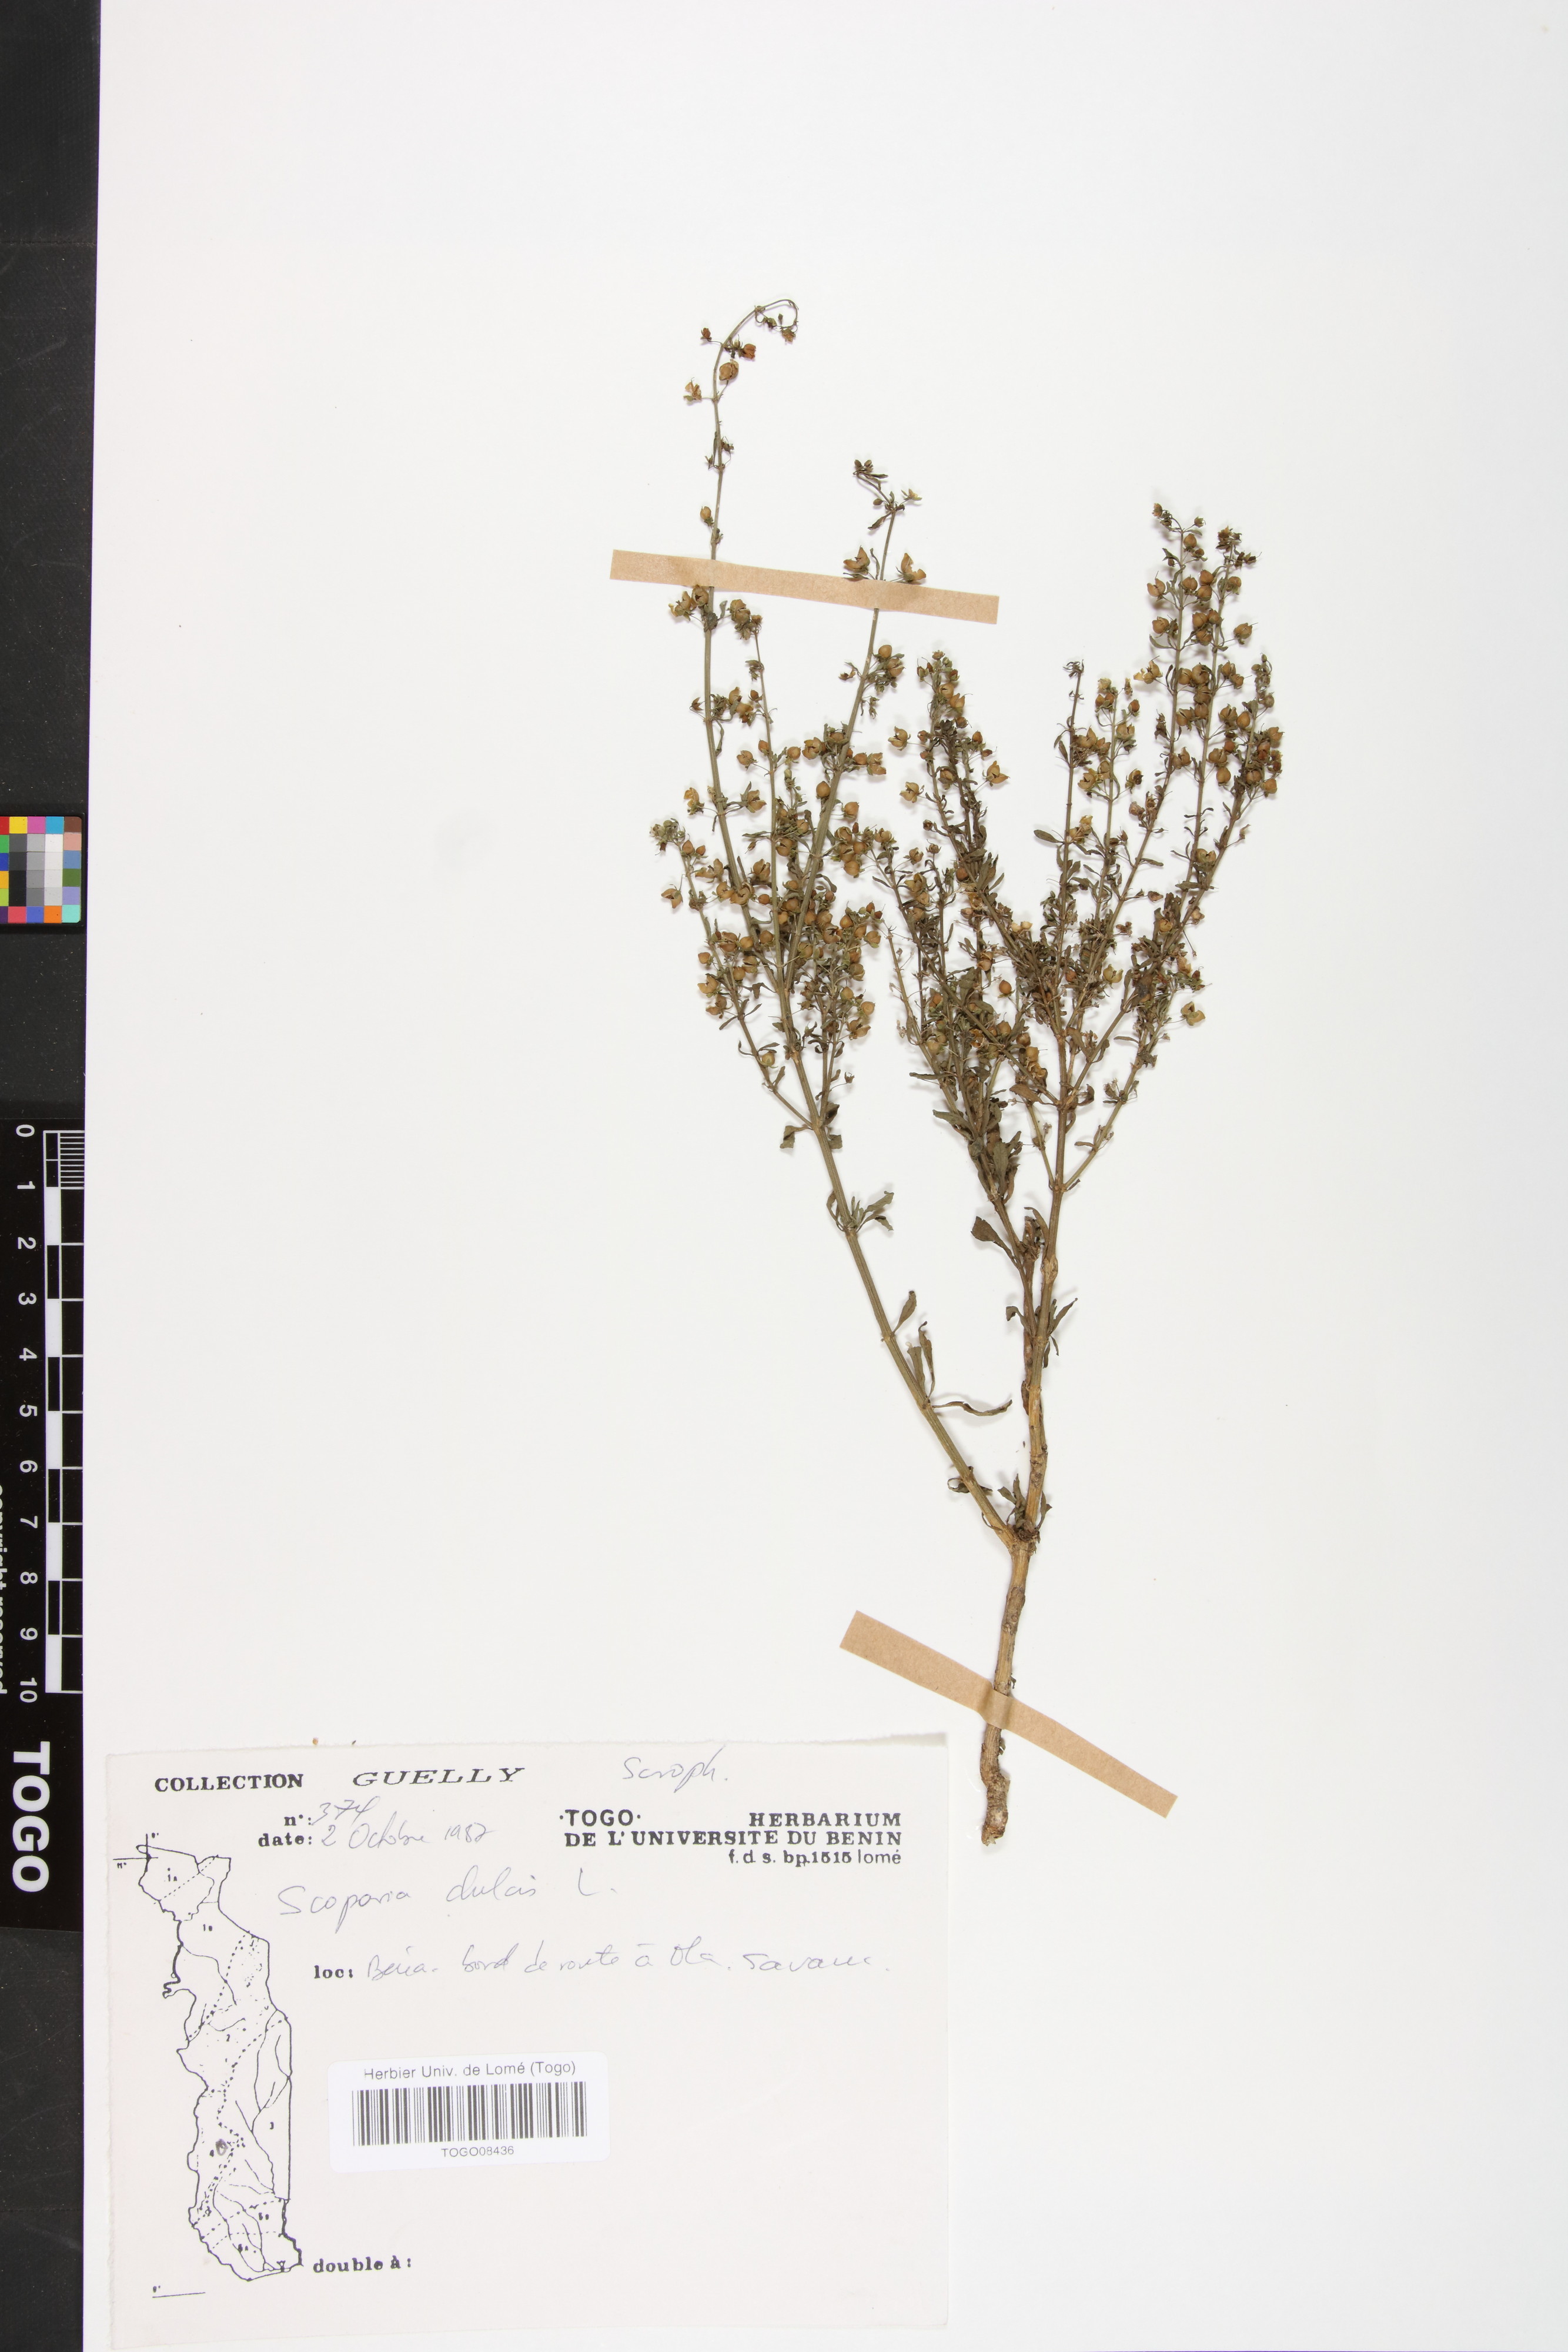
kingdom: Plantae
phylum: Tracheophyta
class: Magnoliopsida
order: Lamiales
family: Plantaginaceae
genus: Scoparia
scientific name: Scoparia dulcis
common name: Scoparia-weed
